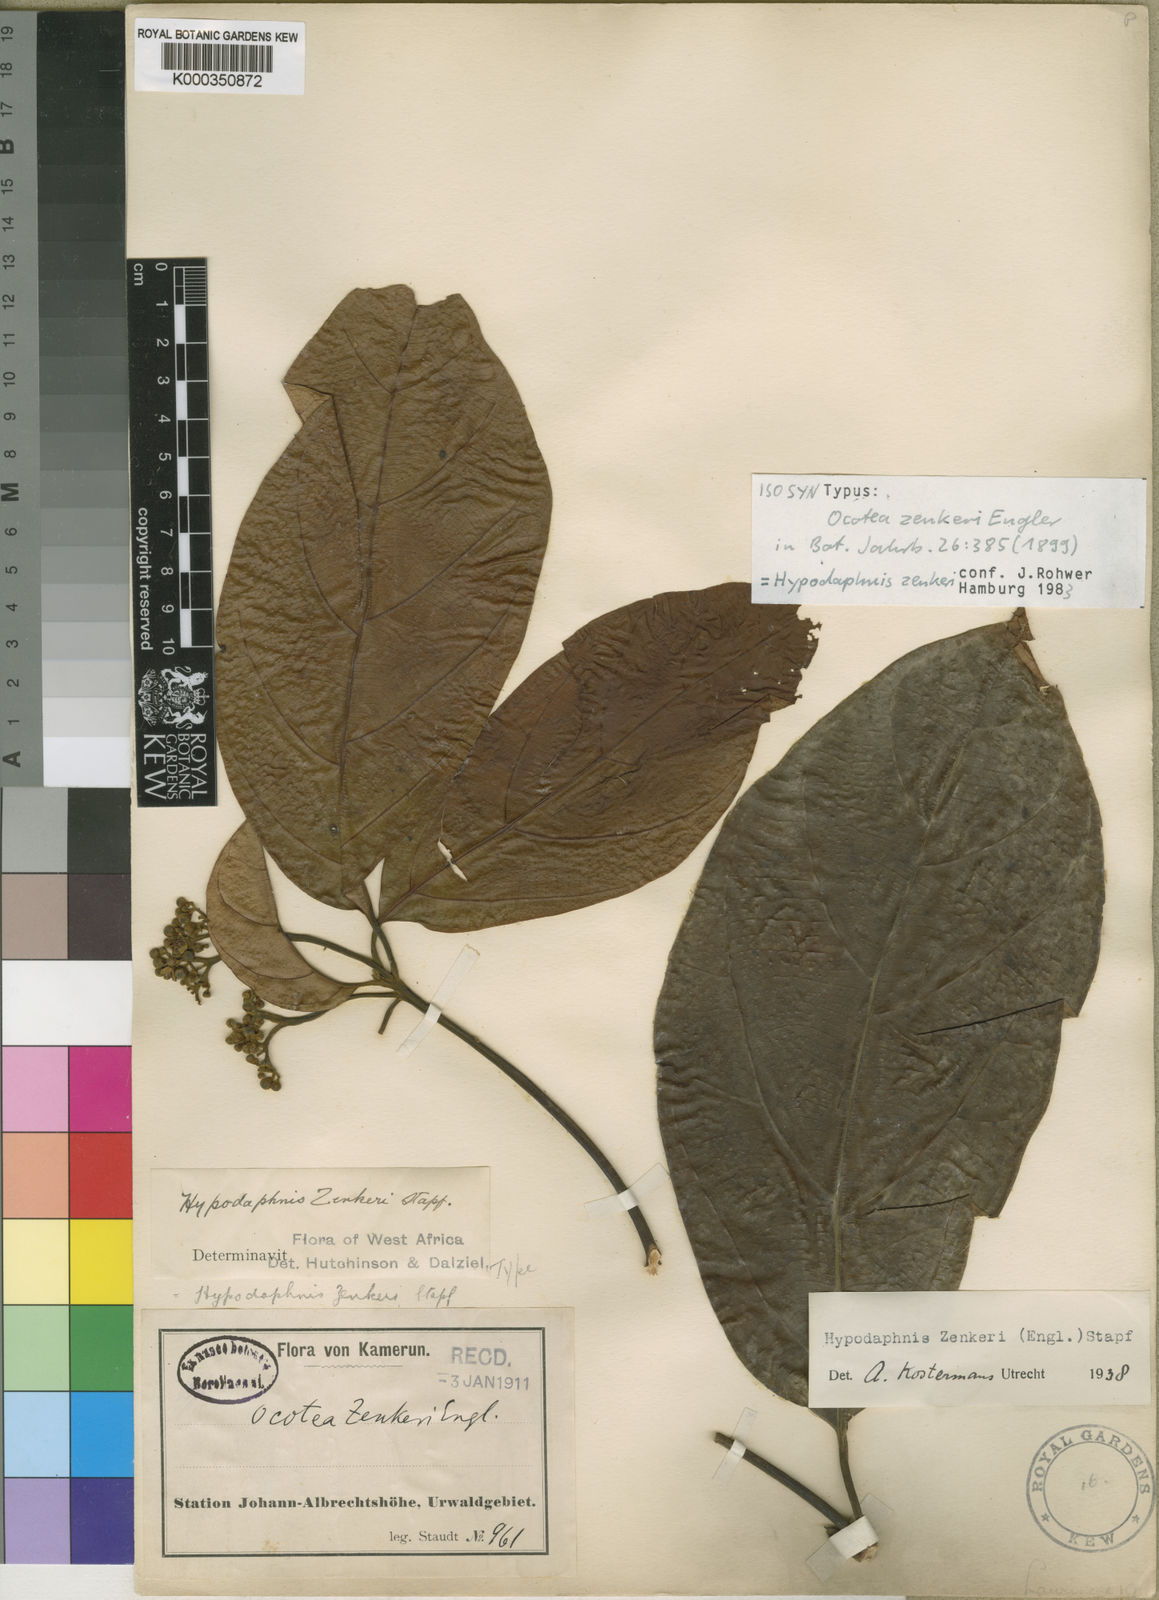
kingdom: Plantae
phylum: Tracheophyta
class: Magnoliopsida
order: Laurales
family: Lauraceae
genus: Hypodaphnis
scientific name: Hypodaphnis zenkeri
